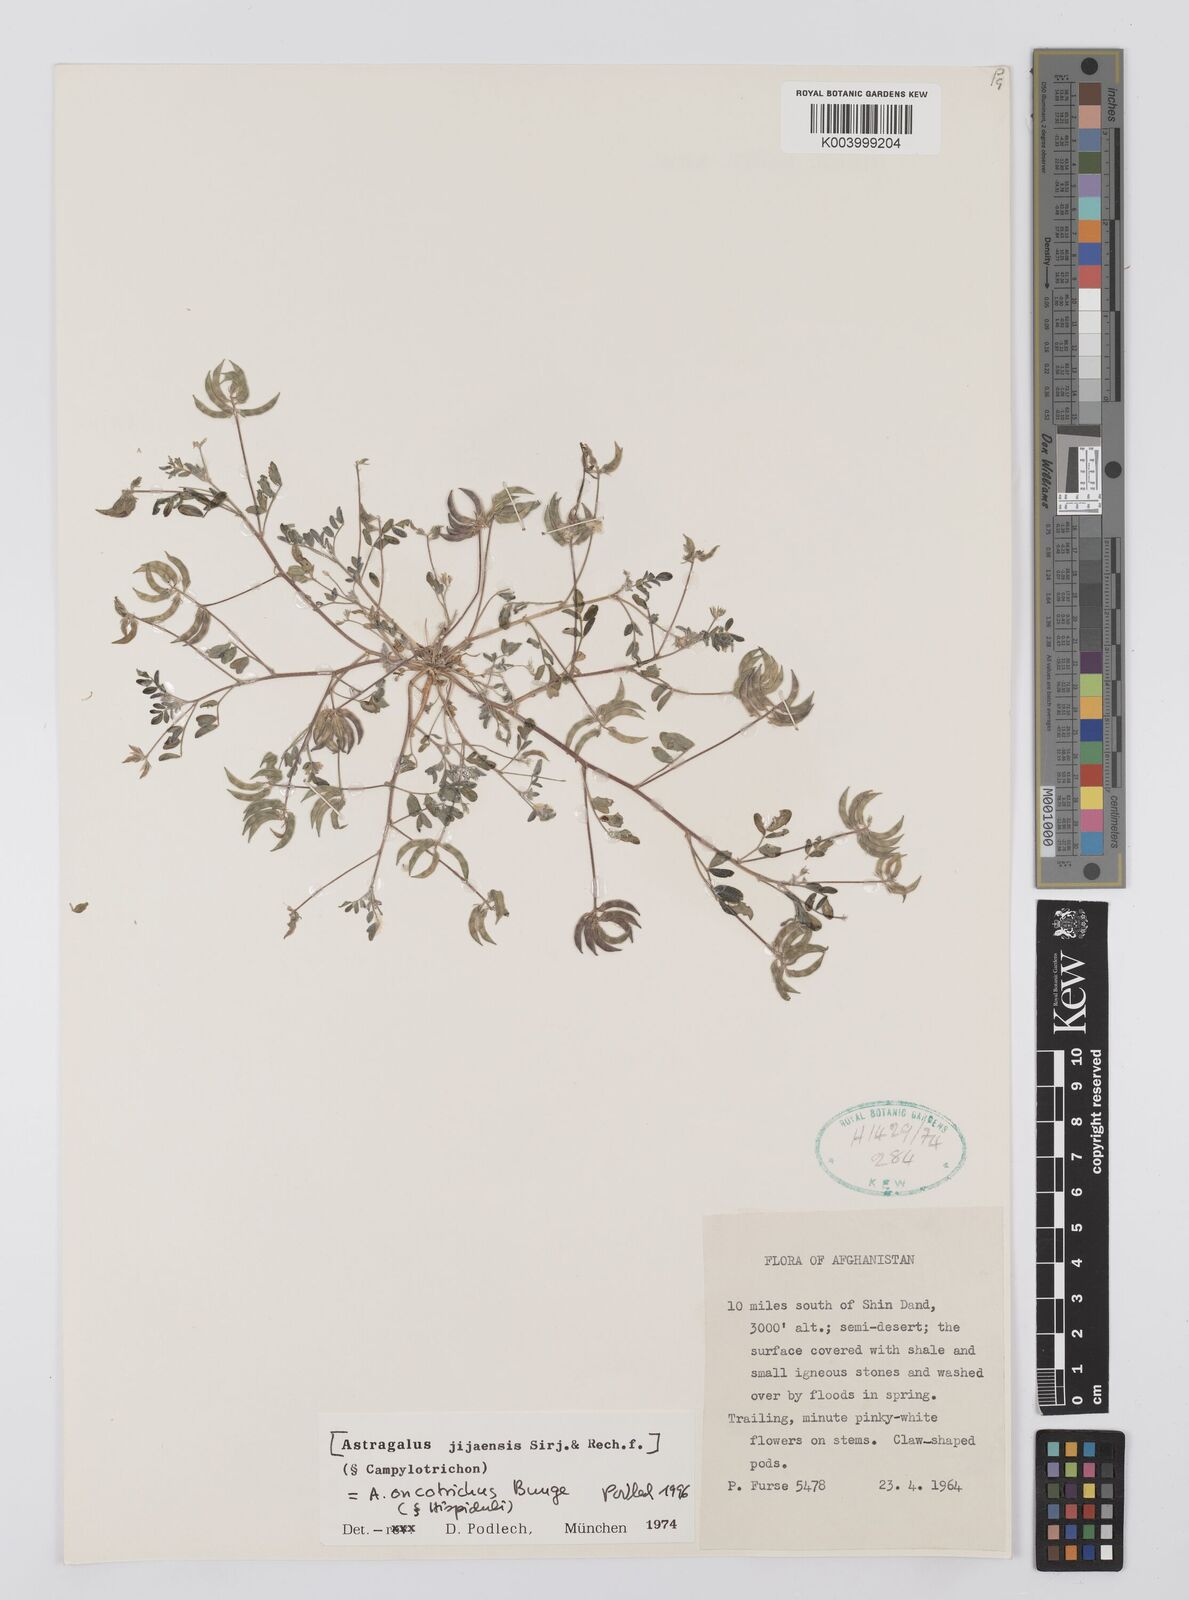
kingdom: Plantae
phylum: Tracheophyta
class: Magnoliopsida
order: Fabales
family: Fabaceae
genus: Astragalus
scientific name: Astragalus oncotrichus
